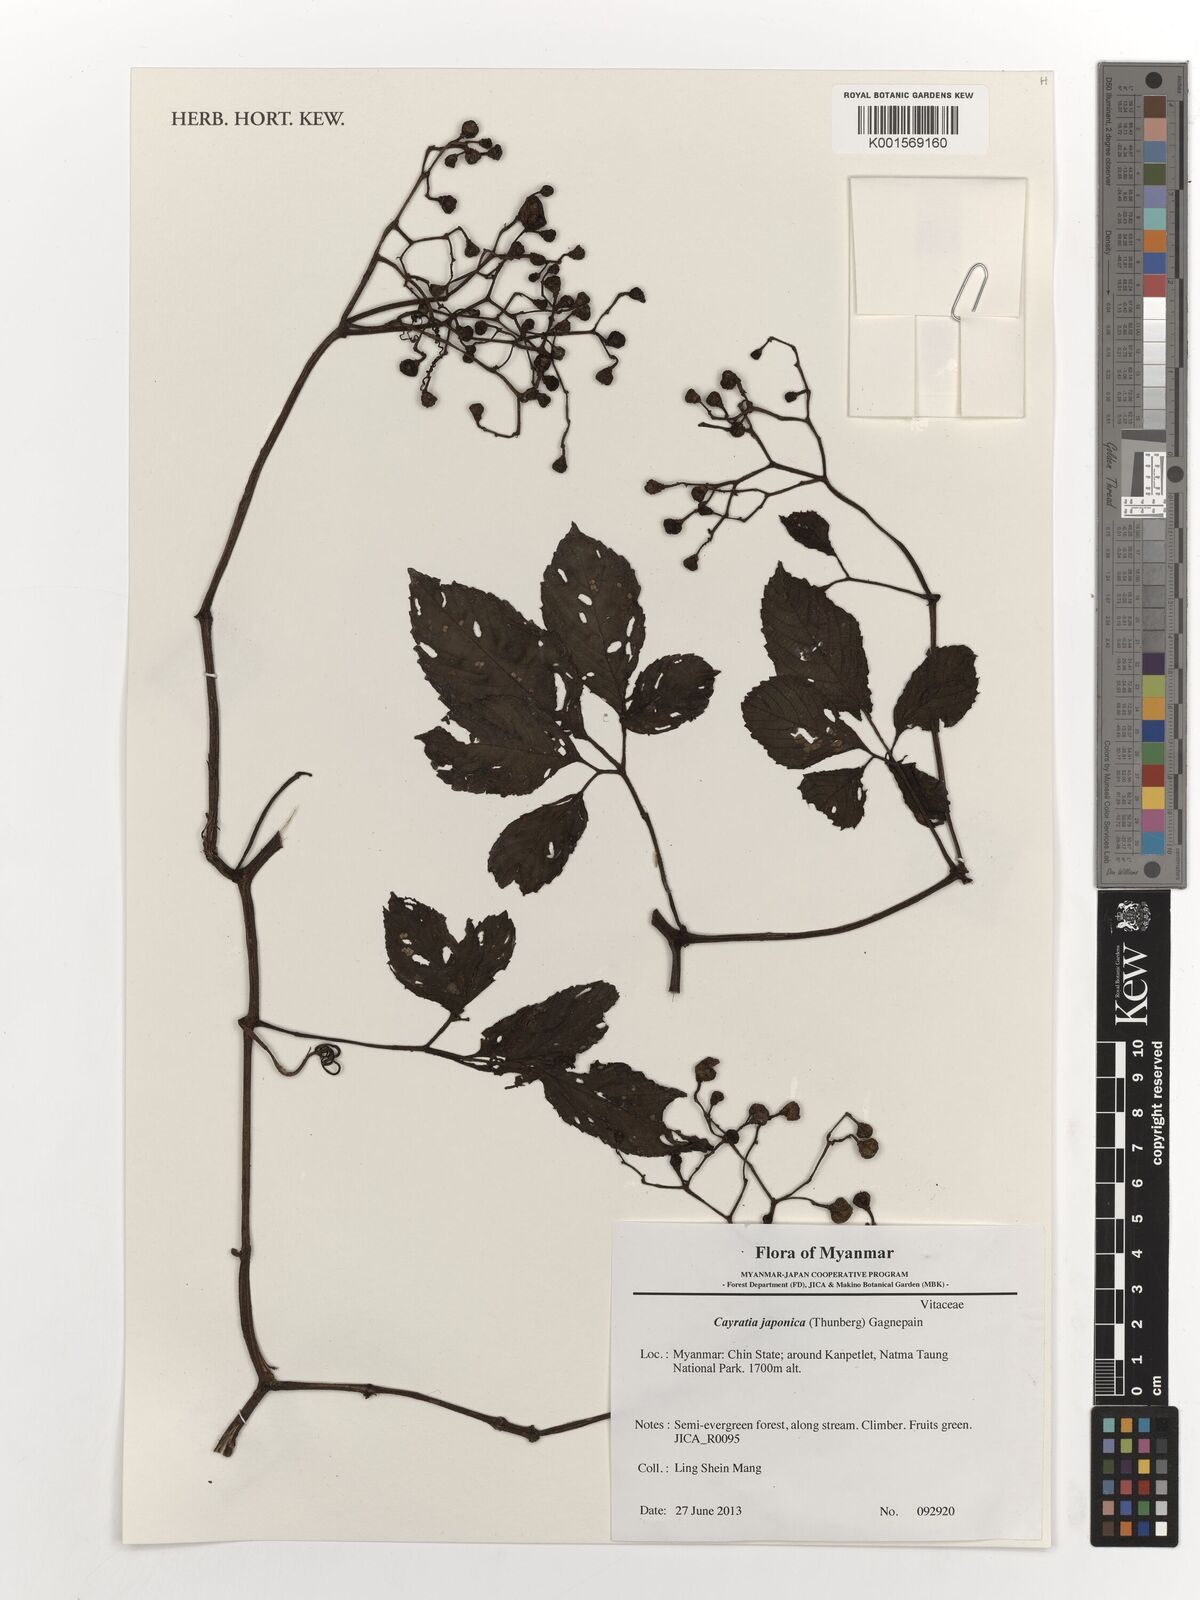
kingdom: Plantae
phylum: Tracheophyta
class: Magnoliopsida
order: Vitales
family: Vitaceae
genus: Causonis
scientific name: Causonis japonica
